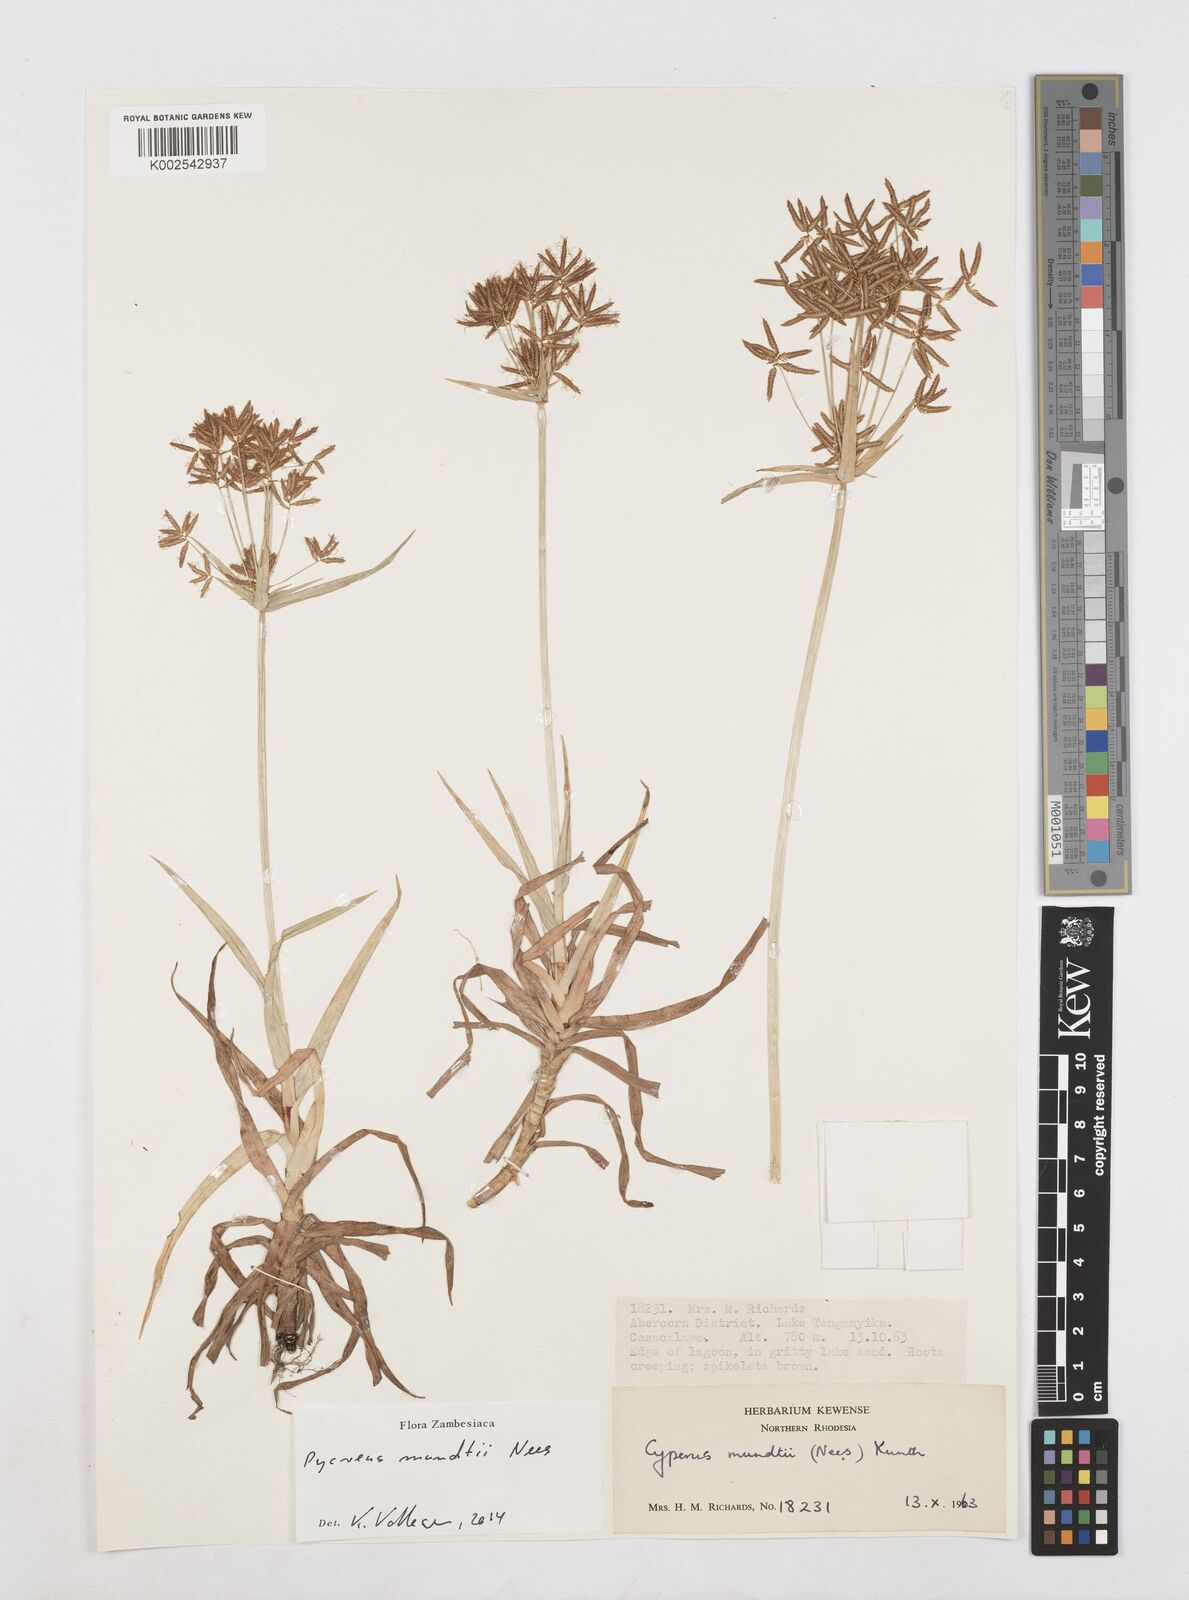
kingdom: Plantae
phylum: Tracheophyta
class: Liliopsida
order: Poales
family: Cyperaceae
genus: Cyperus
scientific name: Cyperus mundii
